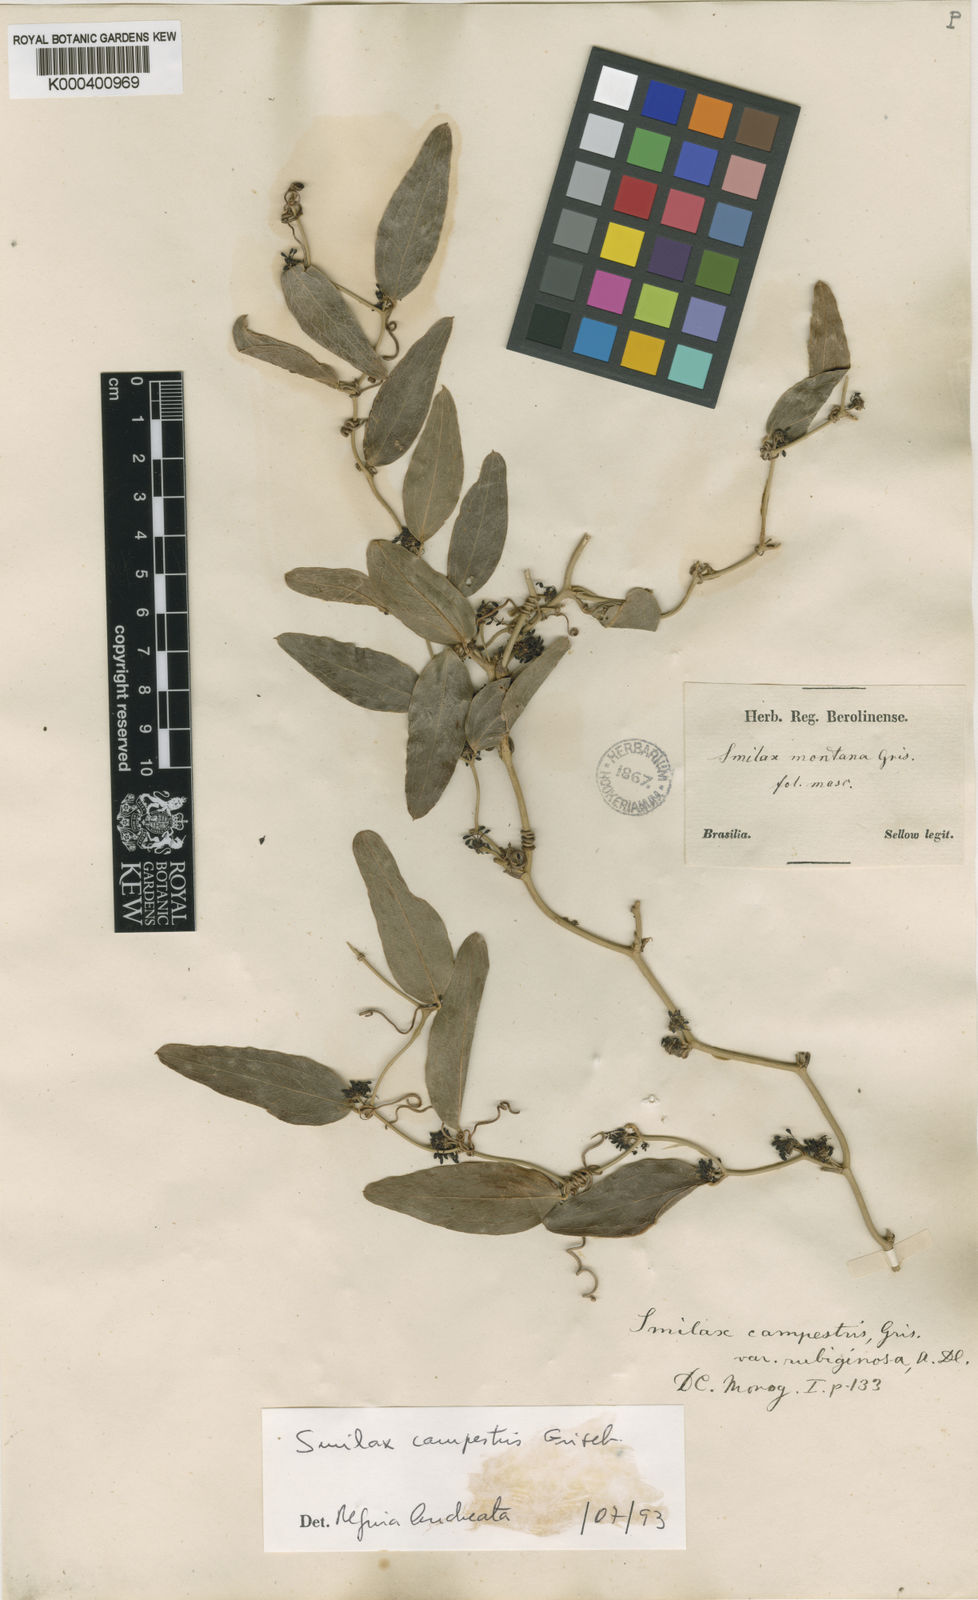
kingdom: Plantae
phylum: Tracheophyta
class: Liliopsida
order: Liliales
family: Smilacaceae
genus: Smilax
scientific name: Smilax campestris
